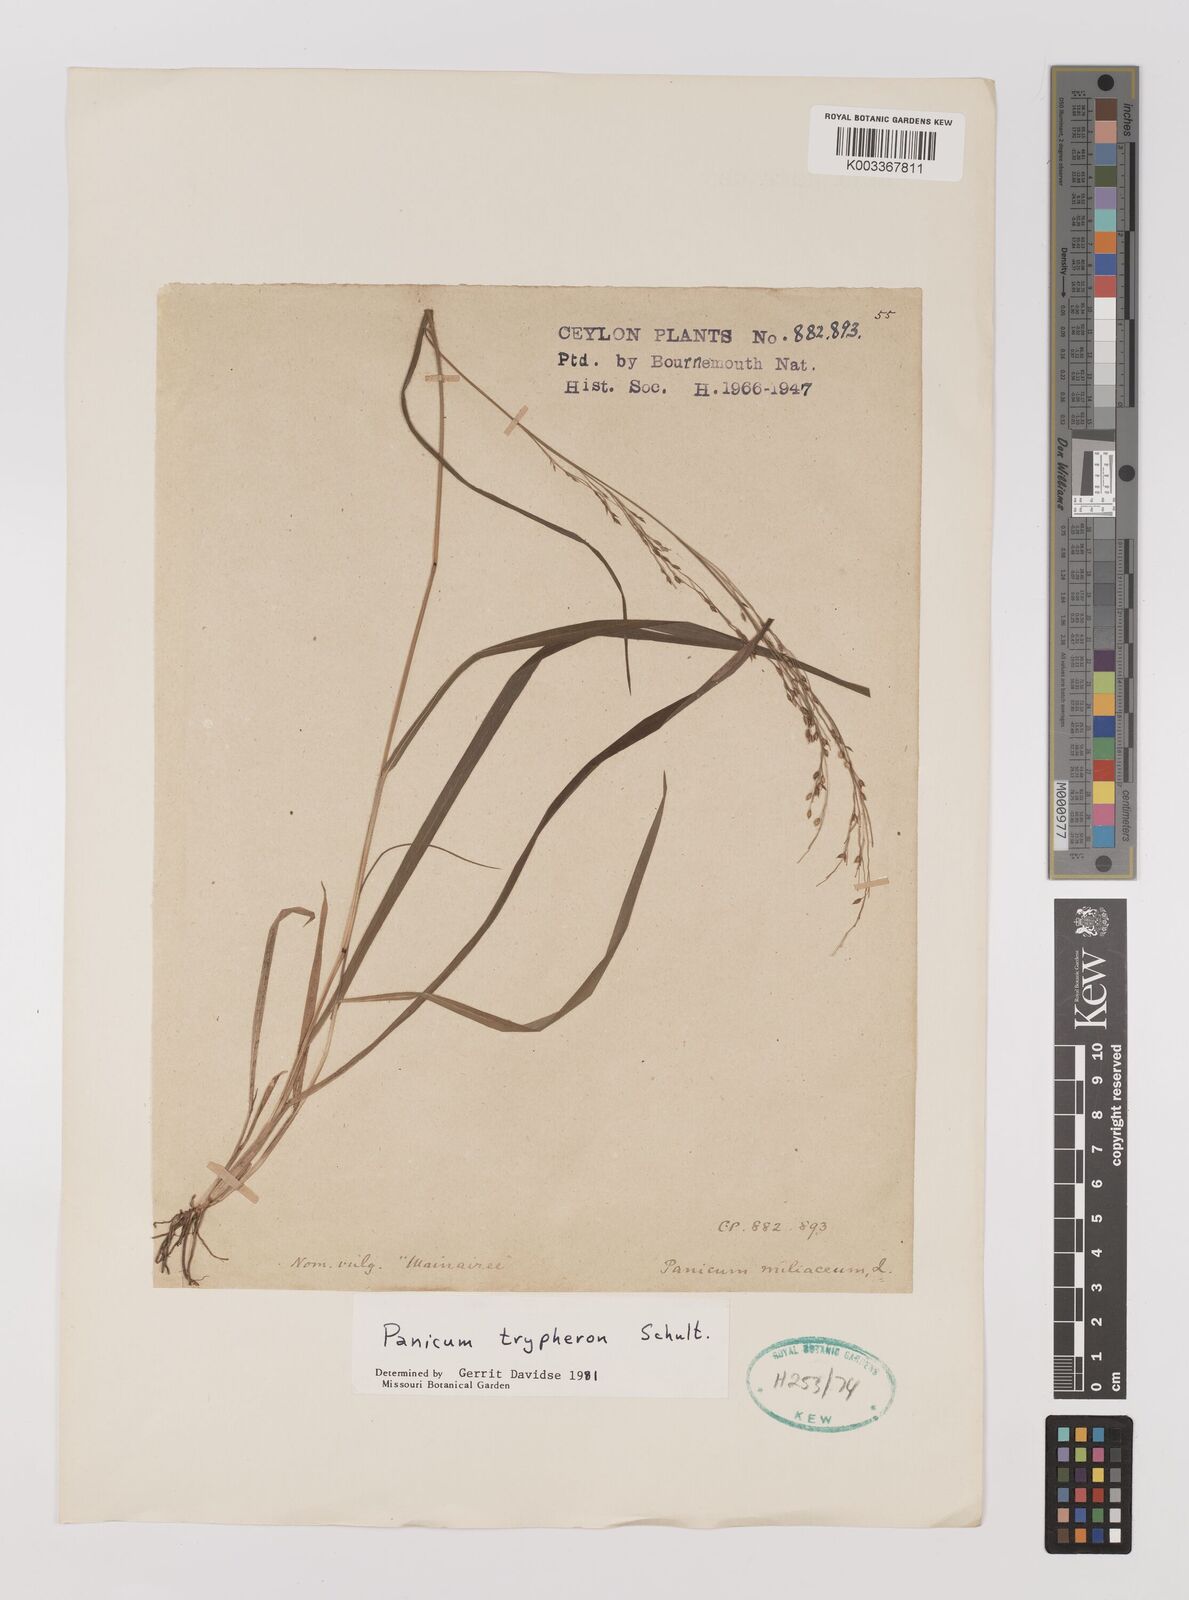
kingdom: Plantae
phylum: Tracheophyta
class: Liliopsida
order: Poales
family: Poaceae
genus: Panicum
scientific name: Panicum curviflorum
